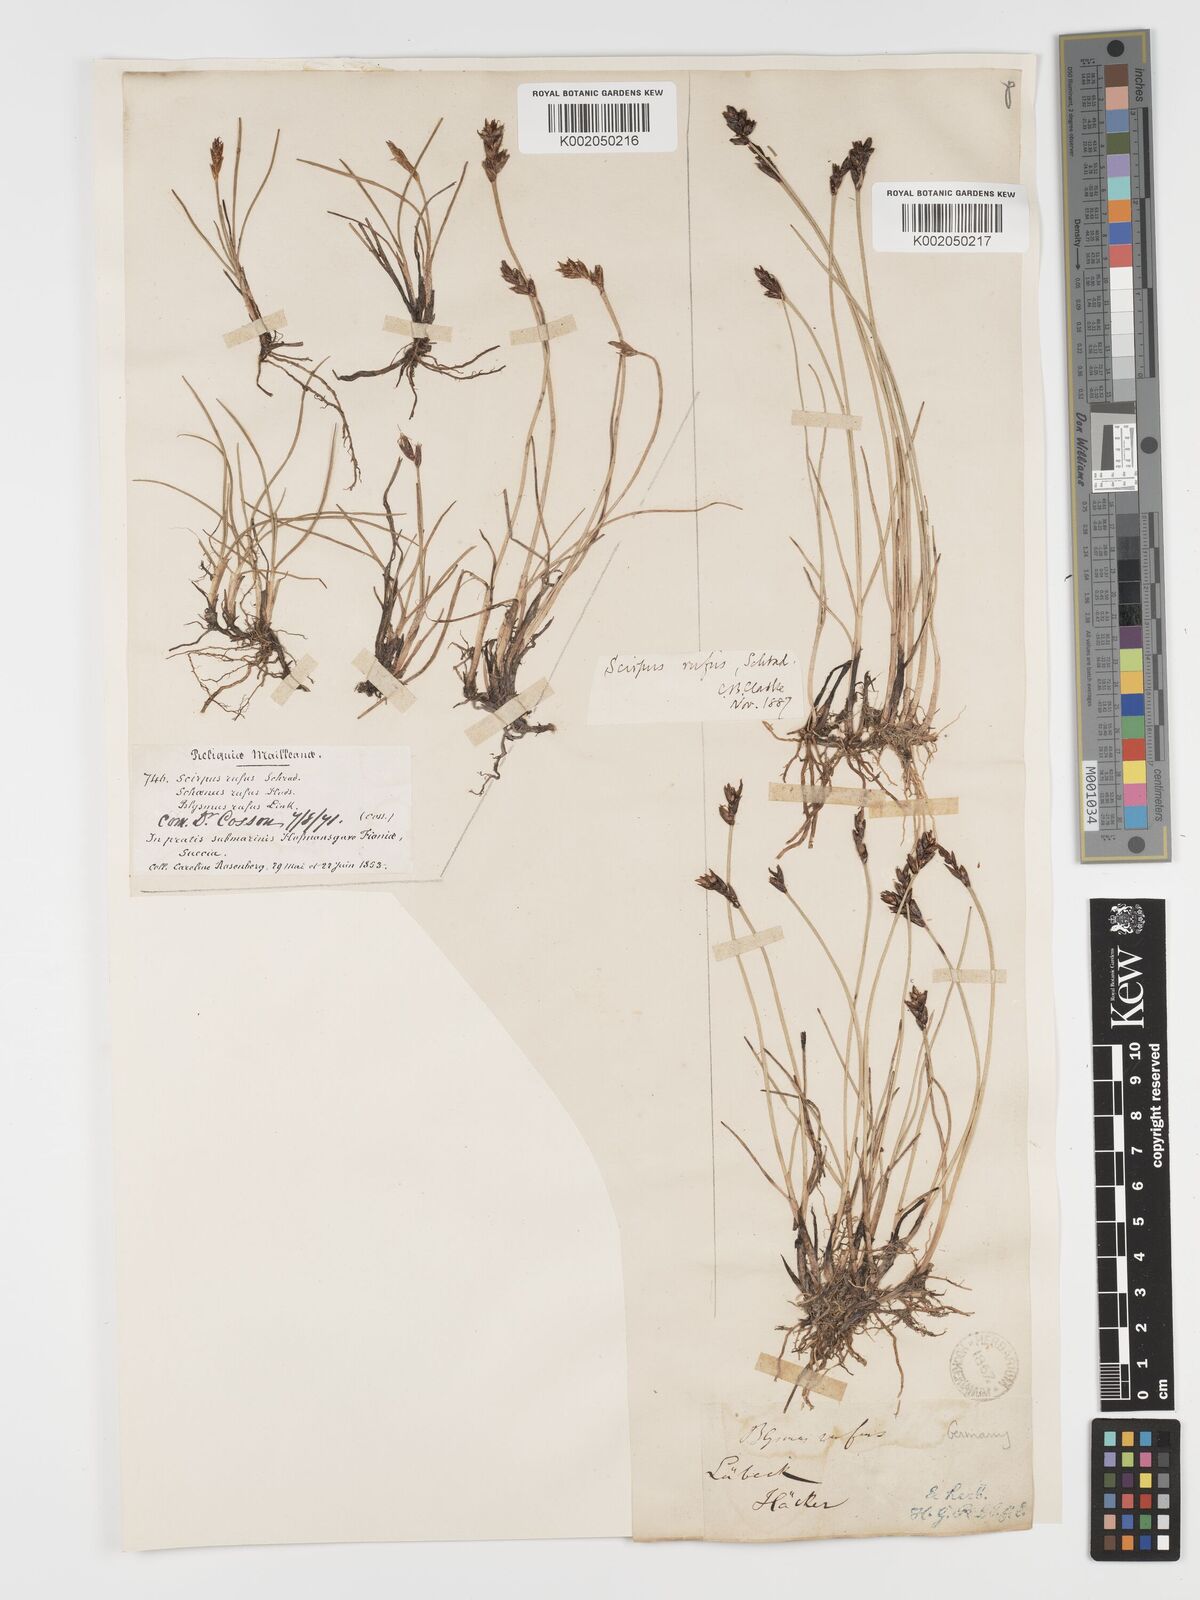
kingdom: Plantae
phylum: Tracheophyta
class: Liliopsida
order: Poales
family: Cyperaceae
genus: Blysmus
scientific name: Blysmus rufus
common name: Saltmarsh flat-sedge
